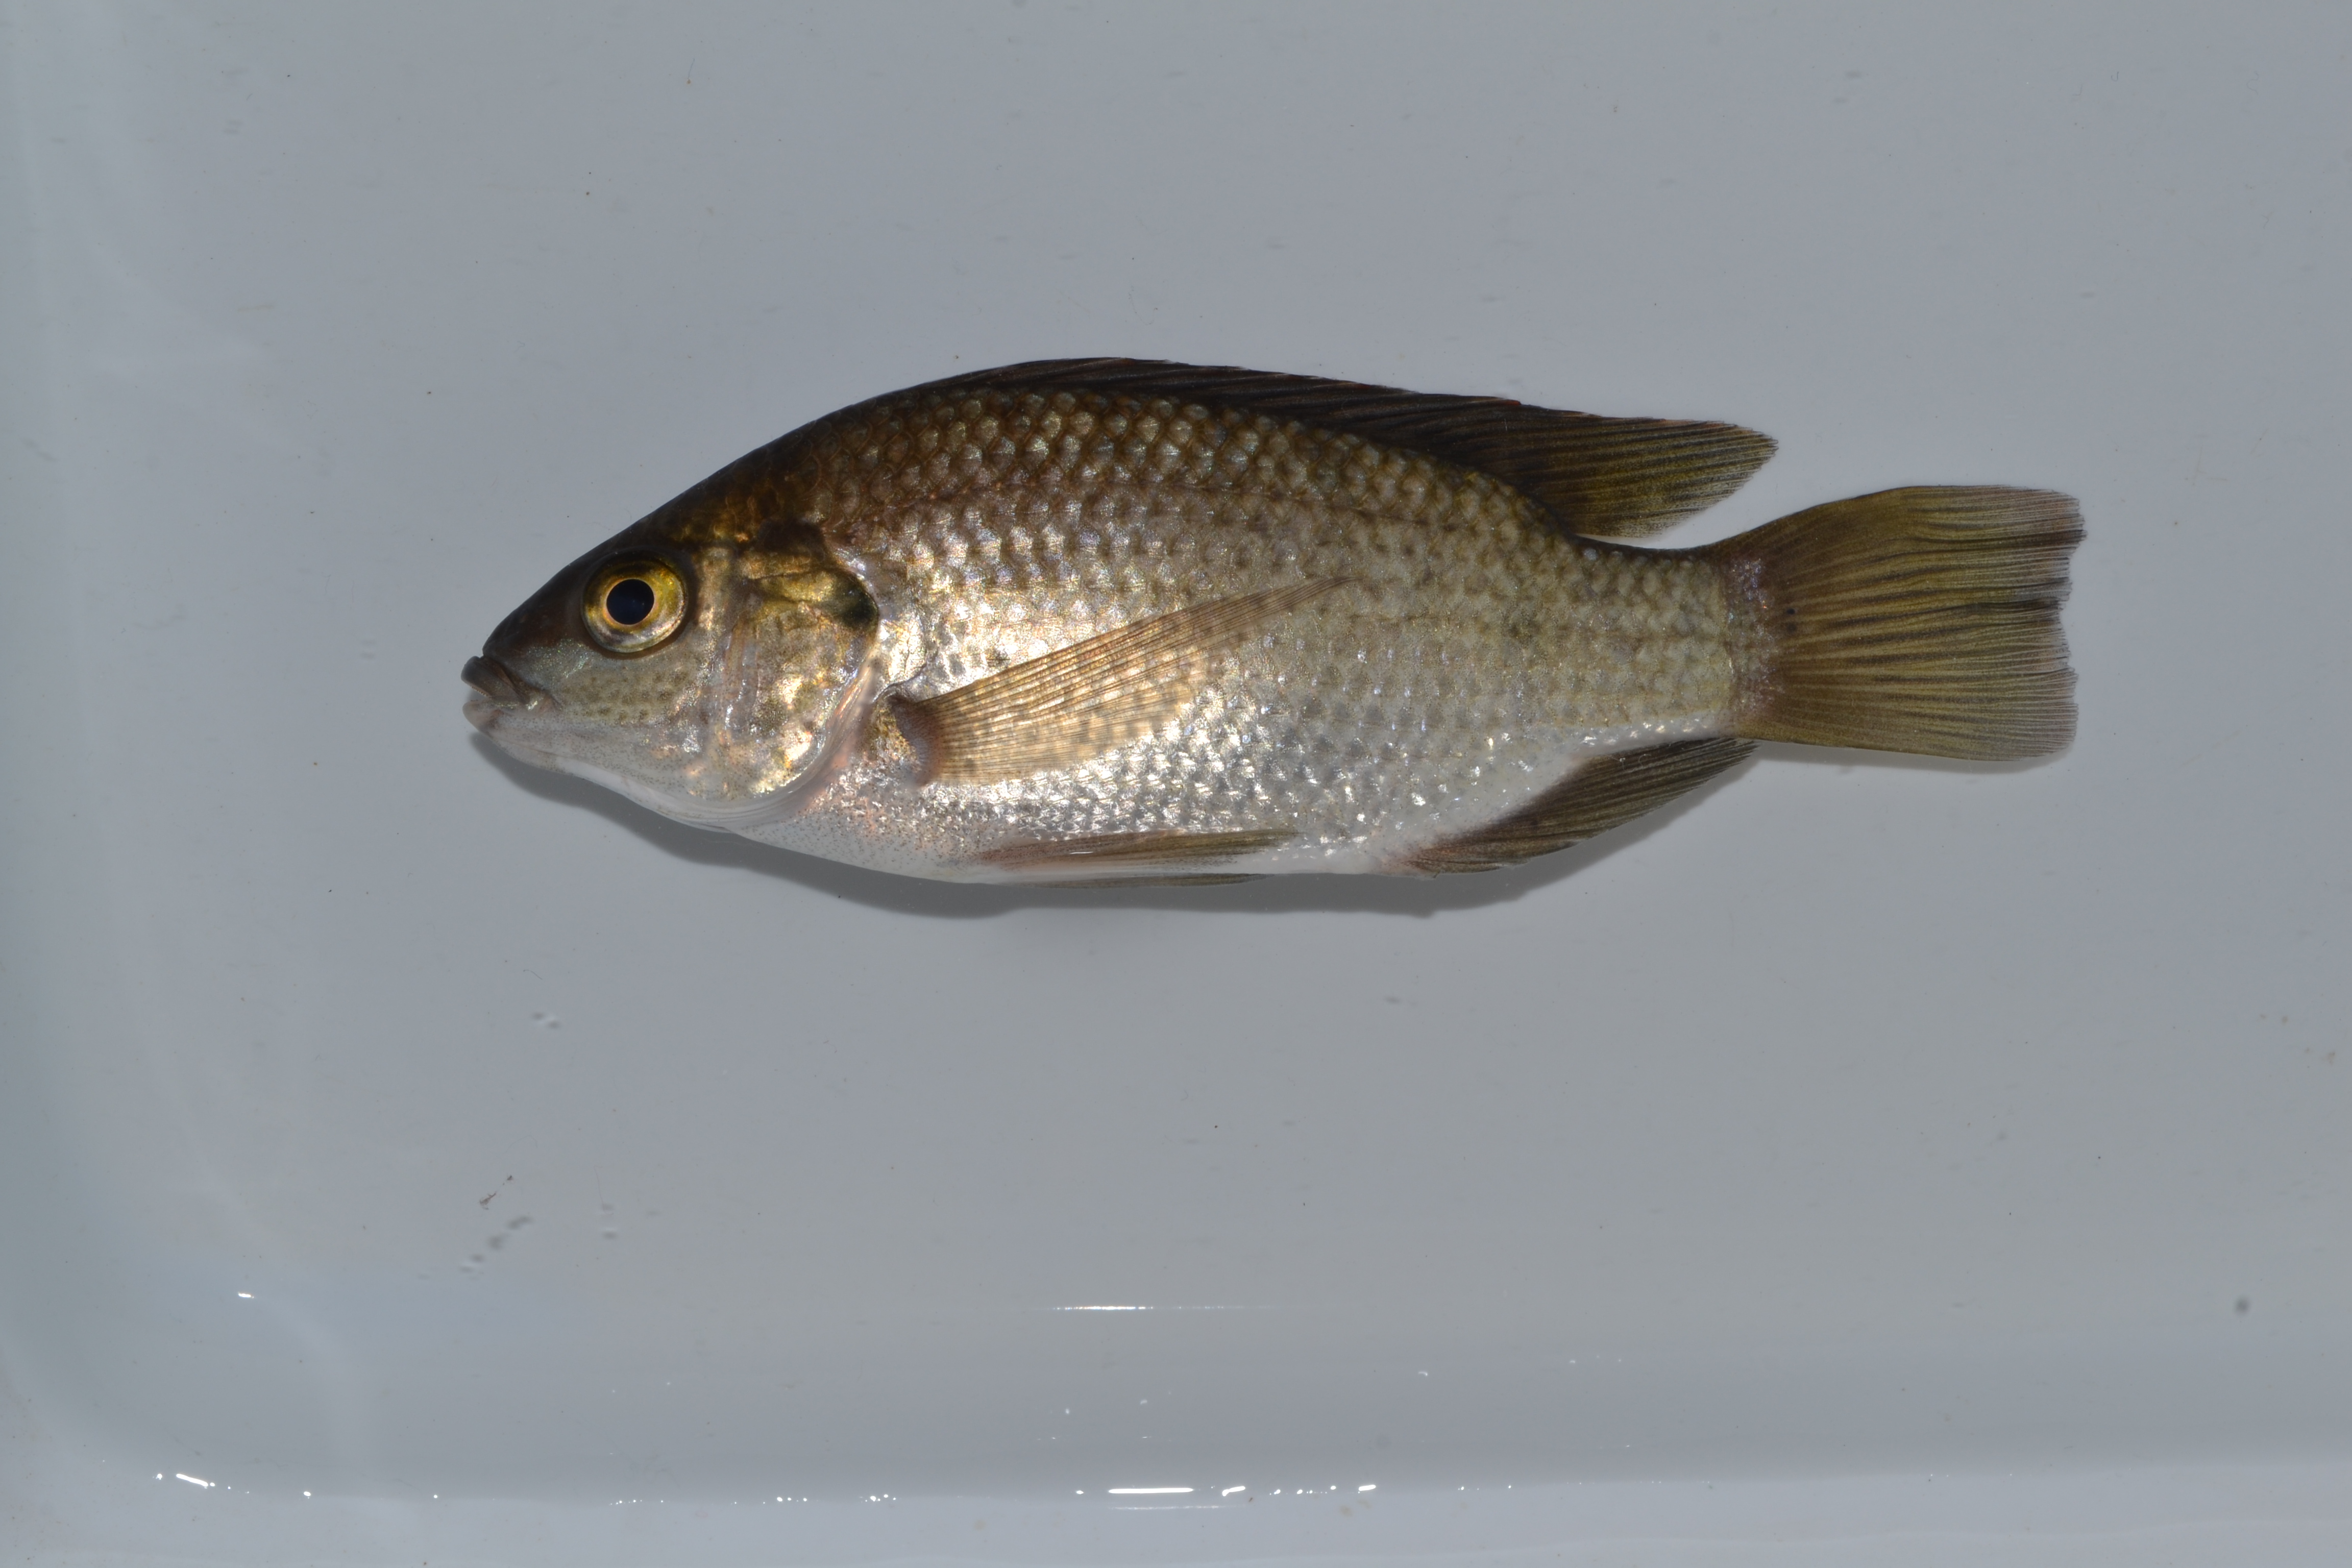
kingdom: Animalia
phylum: Chordata
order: Perciformes
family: Cichlidae
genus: Oreochromis
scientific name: Oreochromis mossambicus
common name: Mozambique tilapia
